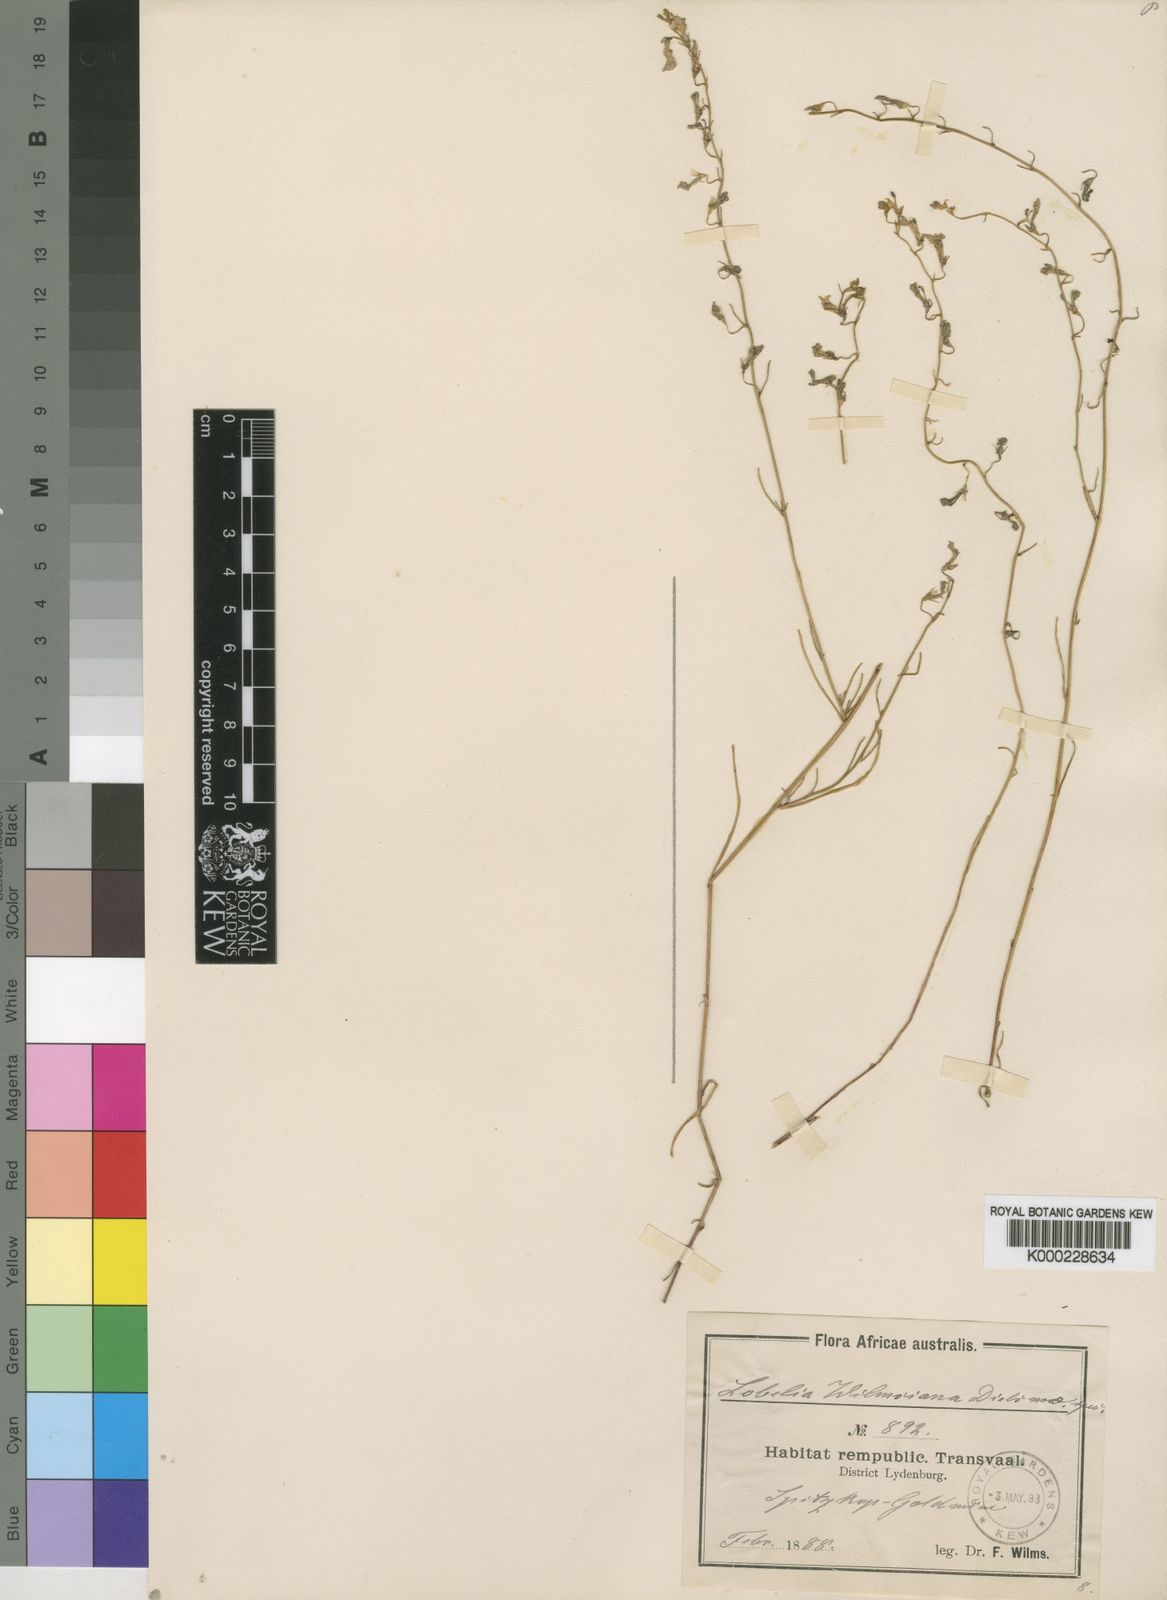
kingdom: Plantae
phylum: Tracheophyta
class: Magnoliopsida
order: Asterales
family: Campanulaceae
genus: Lobelia
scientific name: Lobelia wilmsiana
